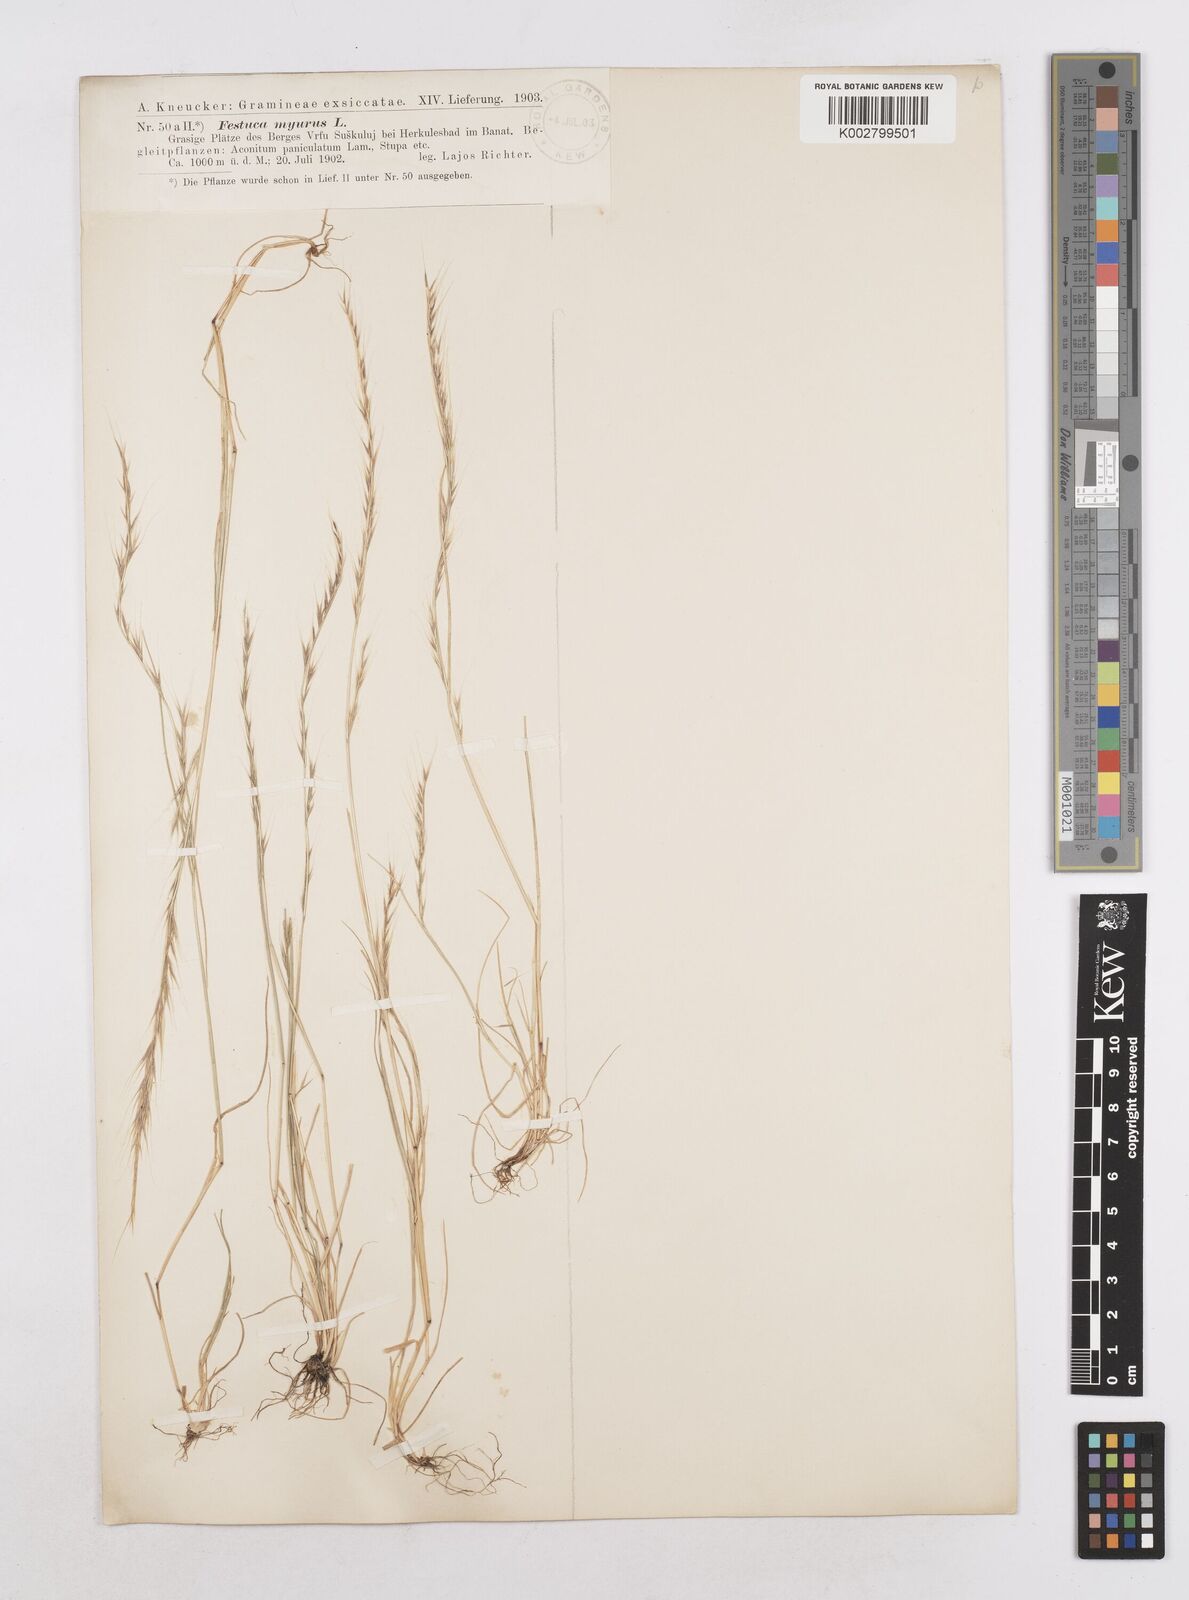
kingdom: Plantae
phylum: Tracheophyta
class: Liliopsida
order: Poales
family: Poaceae
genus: Festuca
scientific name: Festuca myuros
